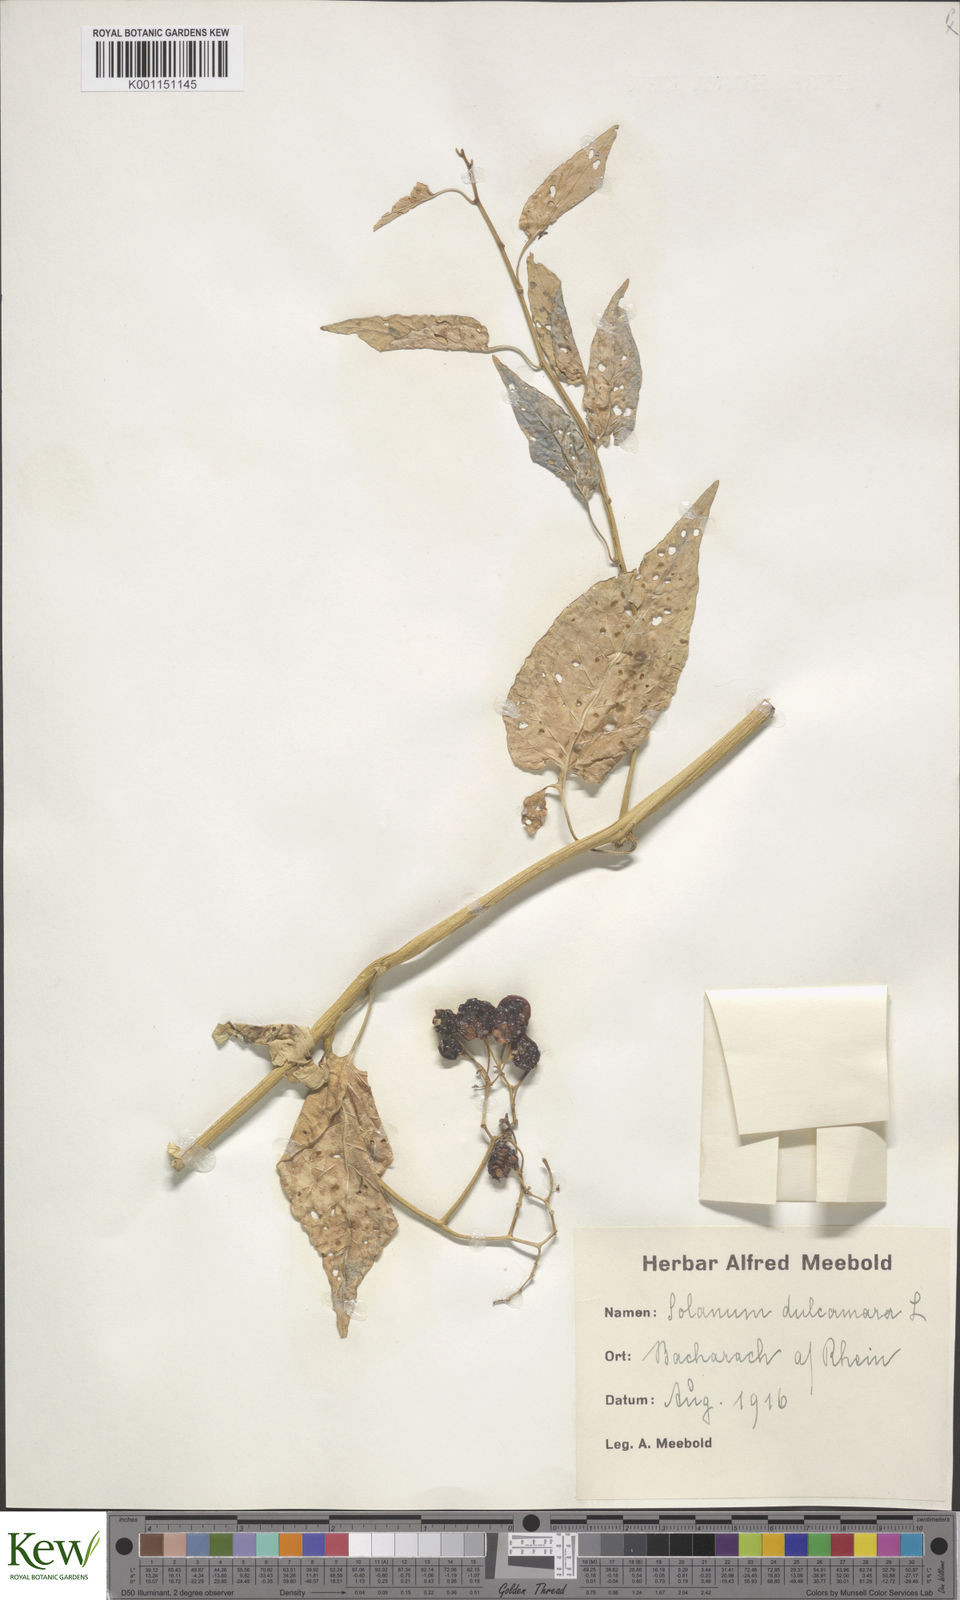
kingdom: Plantae
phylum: Tracheophyta
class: Magnoliopsida
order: Solanales
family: Solanaceae
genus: Solanum
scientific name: Solanum dulcamara
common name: Climbing nightshade
